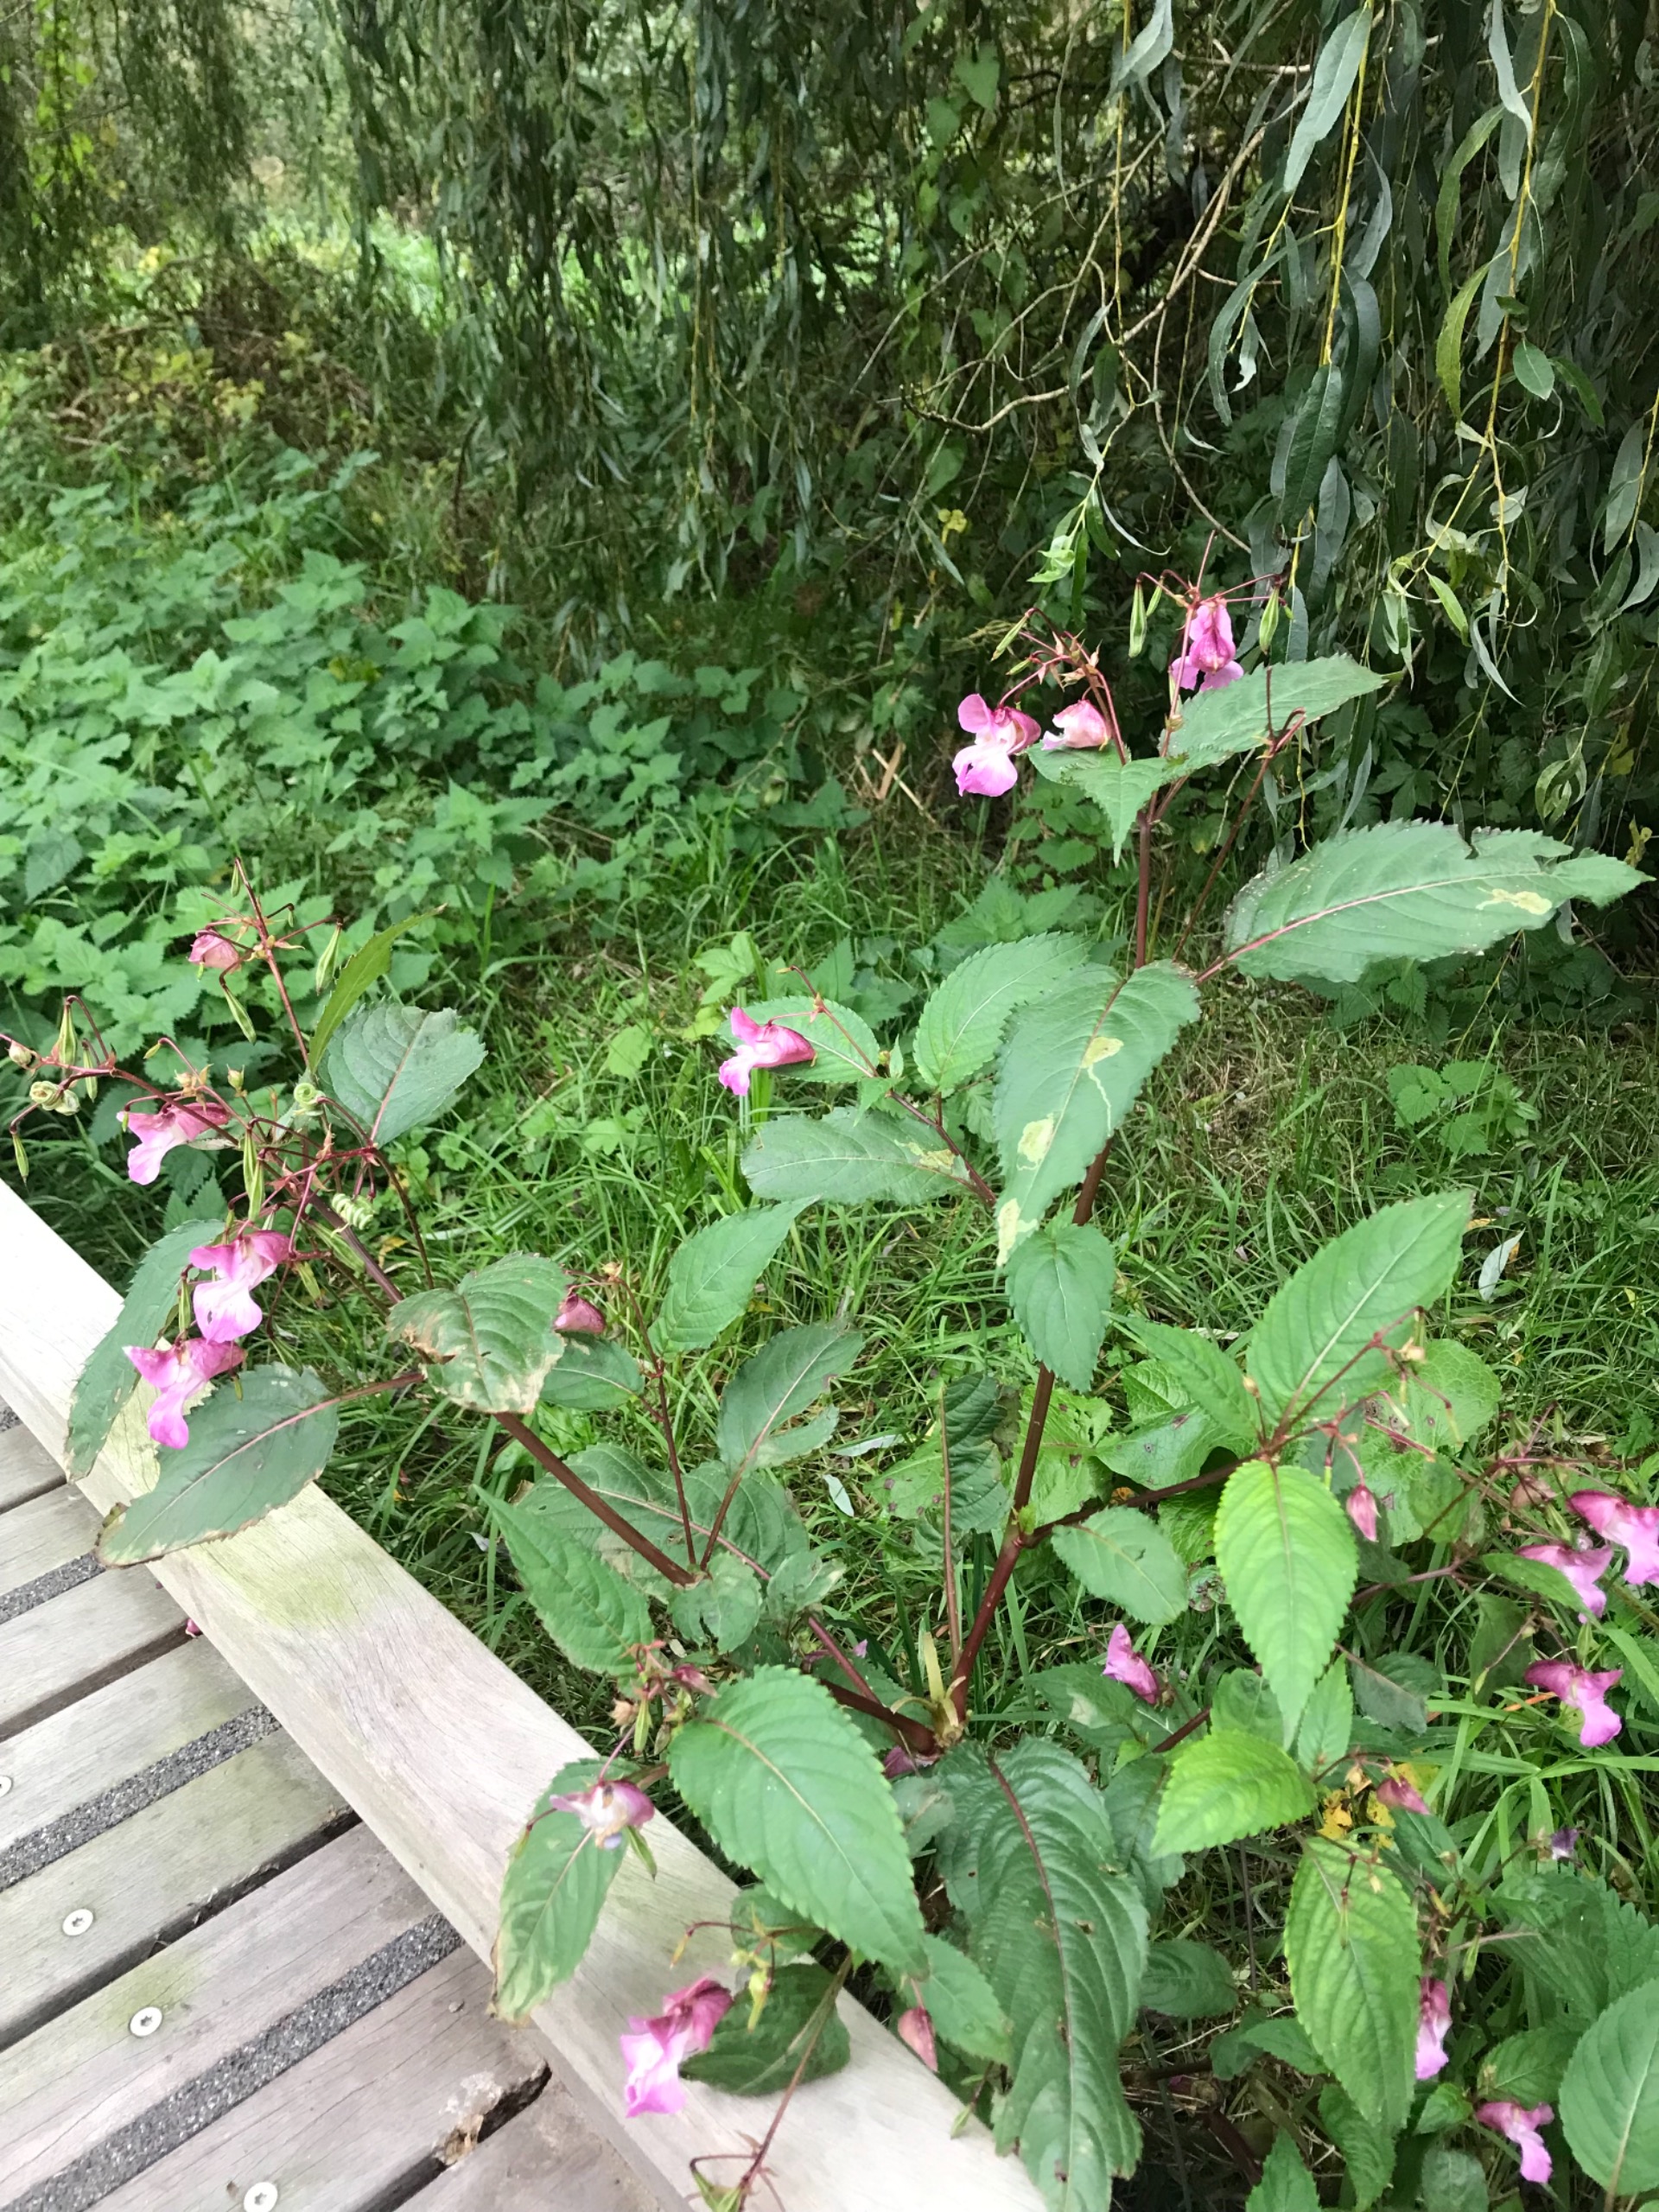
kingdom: Plantae
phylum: Tracheophyta
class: Magnoliopsida
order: Ericales
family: Balsaminaceae
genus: Impatiens
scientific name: Impatiens glandulifera
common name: Kæmpe-balsamin
